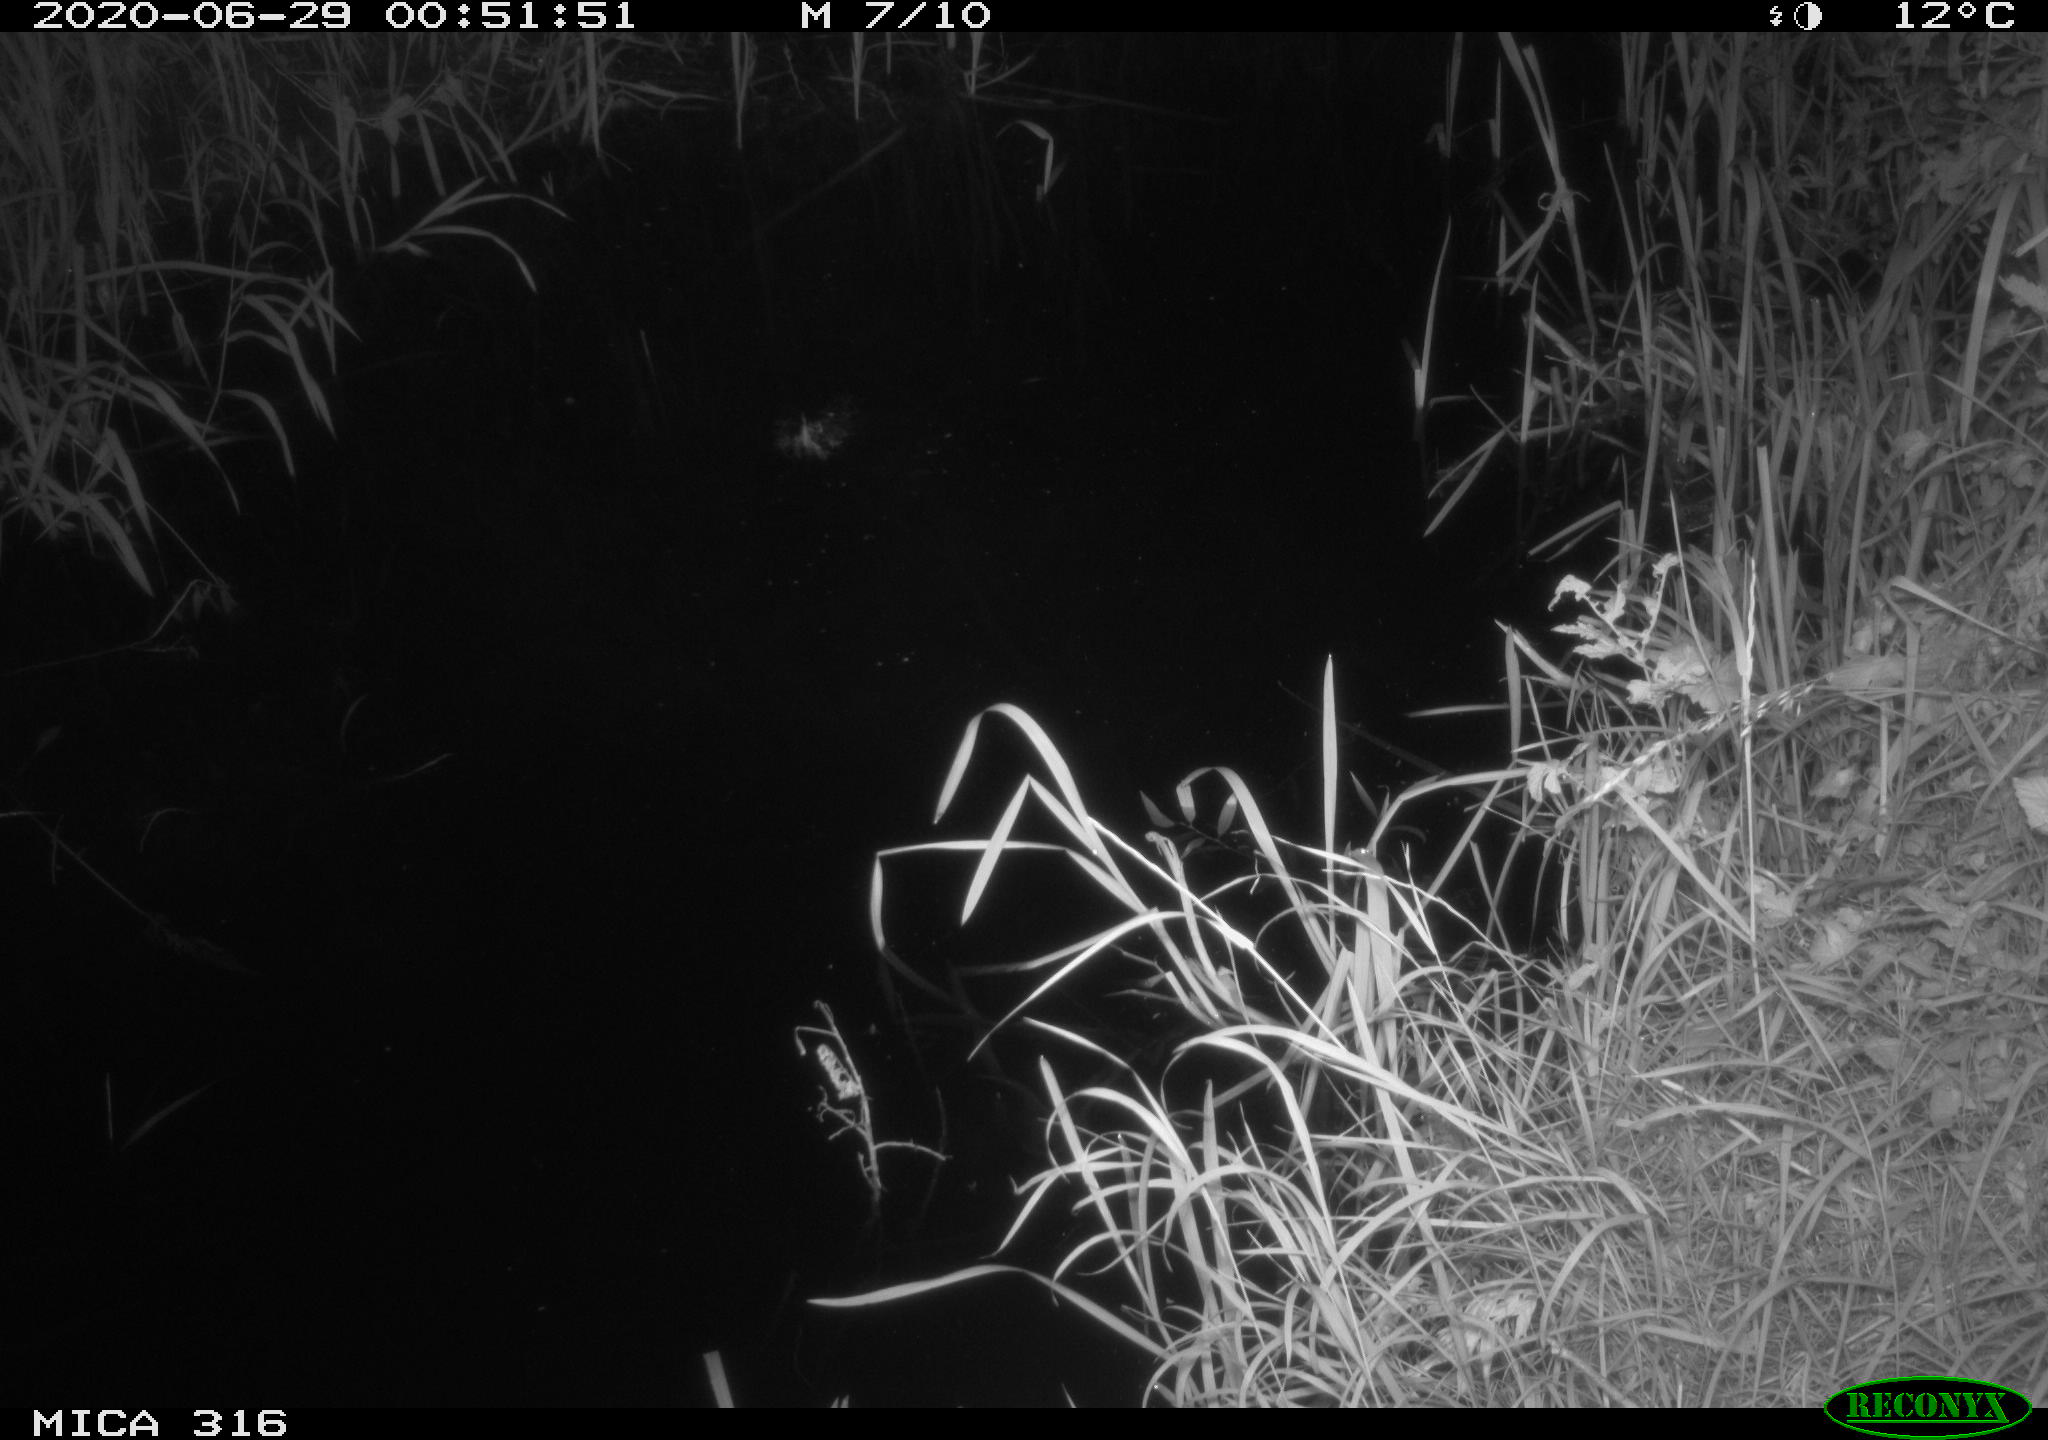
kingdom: Animalia
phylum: Chordata
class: Aves
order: Anseriformes
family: Anatidae
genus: Anas
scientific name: Anas platyrhynchos
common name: Mallard
